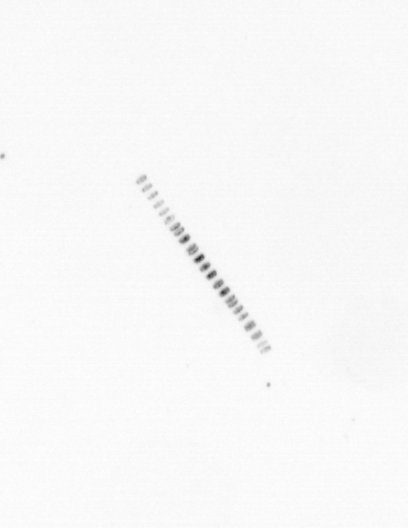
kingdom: Chromista
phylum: Ochrophyta
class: Bacillariophyceae
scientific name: Bacillariophyceae
